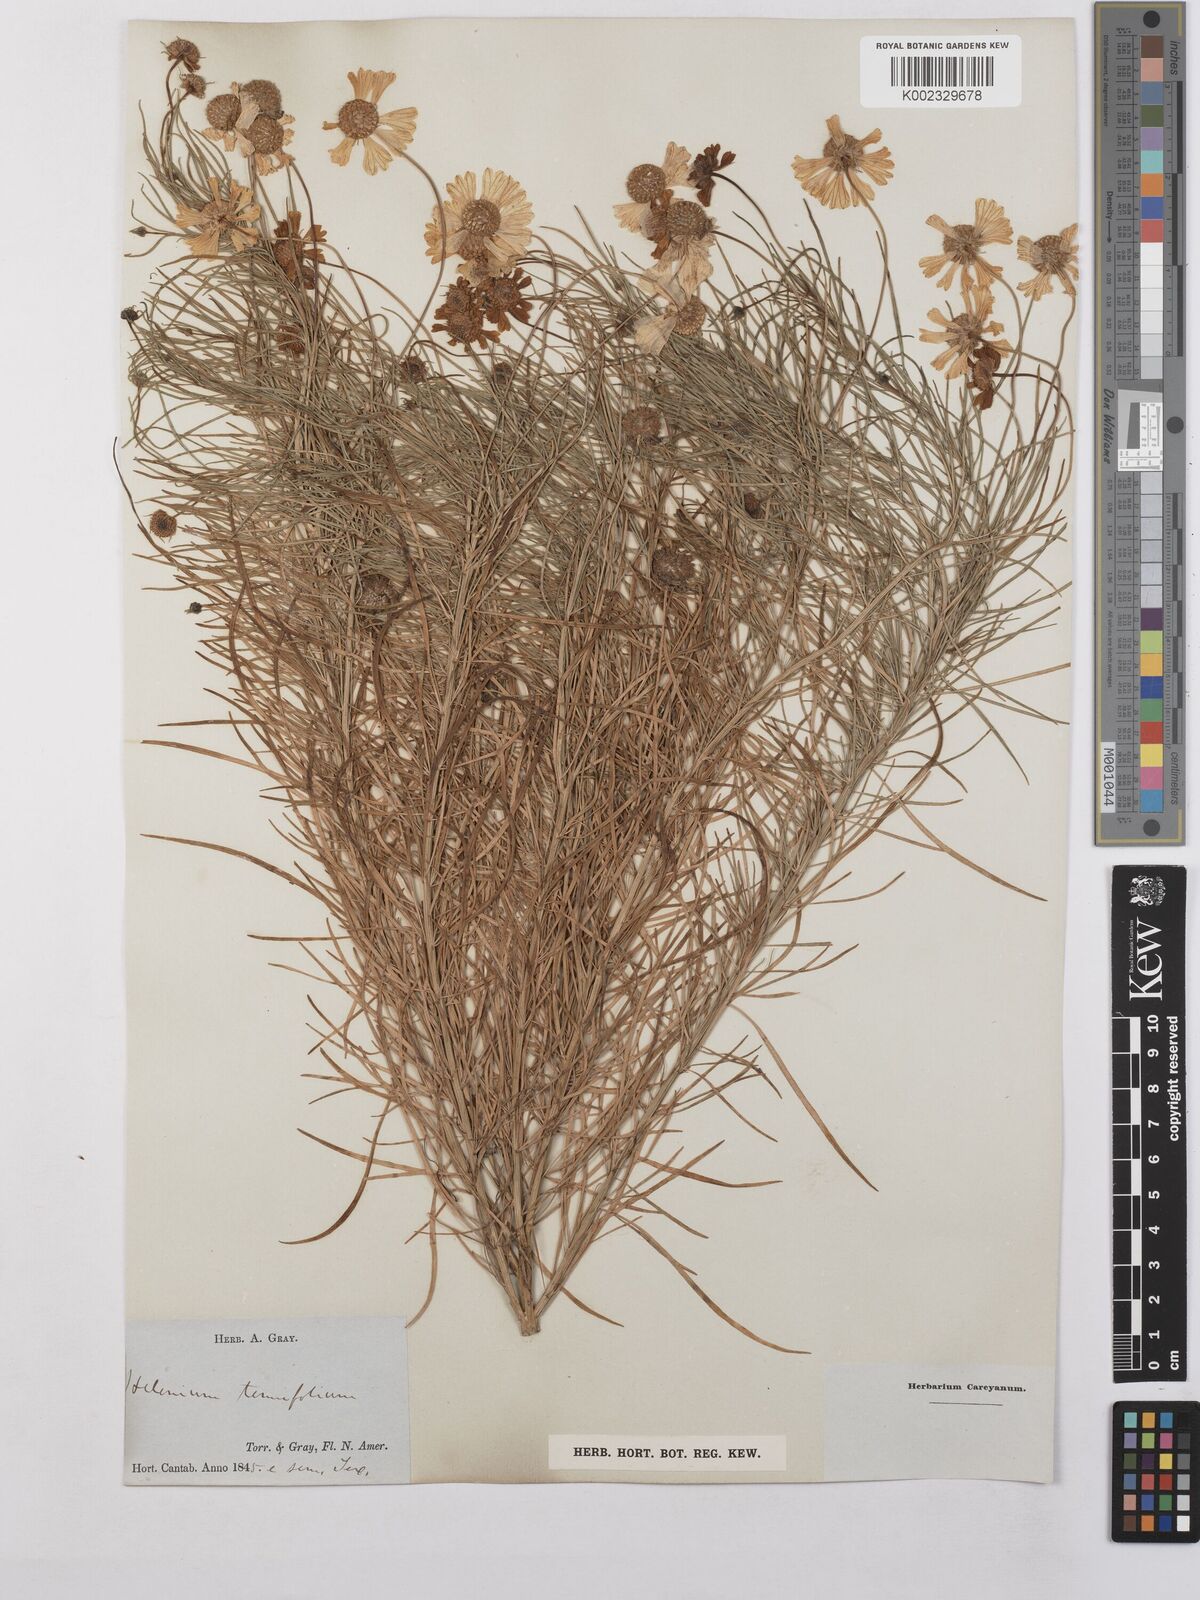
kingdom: Plantae
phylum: Tracheophyta
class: Magnoliopsida
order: Asterales
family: Asteraceae
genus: Helenium
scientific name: Helenium amarum
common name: Bitter sneezeweed
